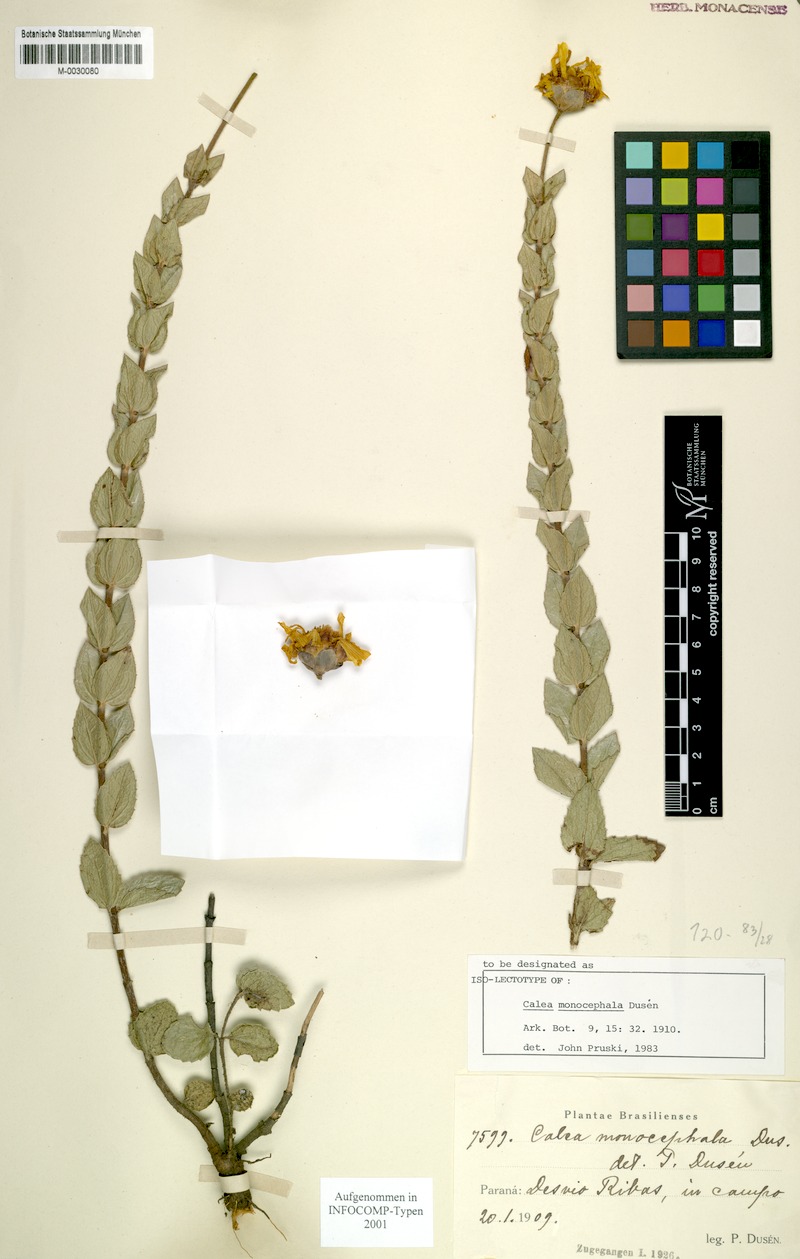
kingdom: Plantae
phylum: Tracheophyta
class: Magnoliopsida
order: Asterales
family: Asteraceae
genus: Calea
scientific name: Calea monocephala
